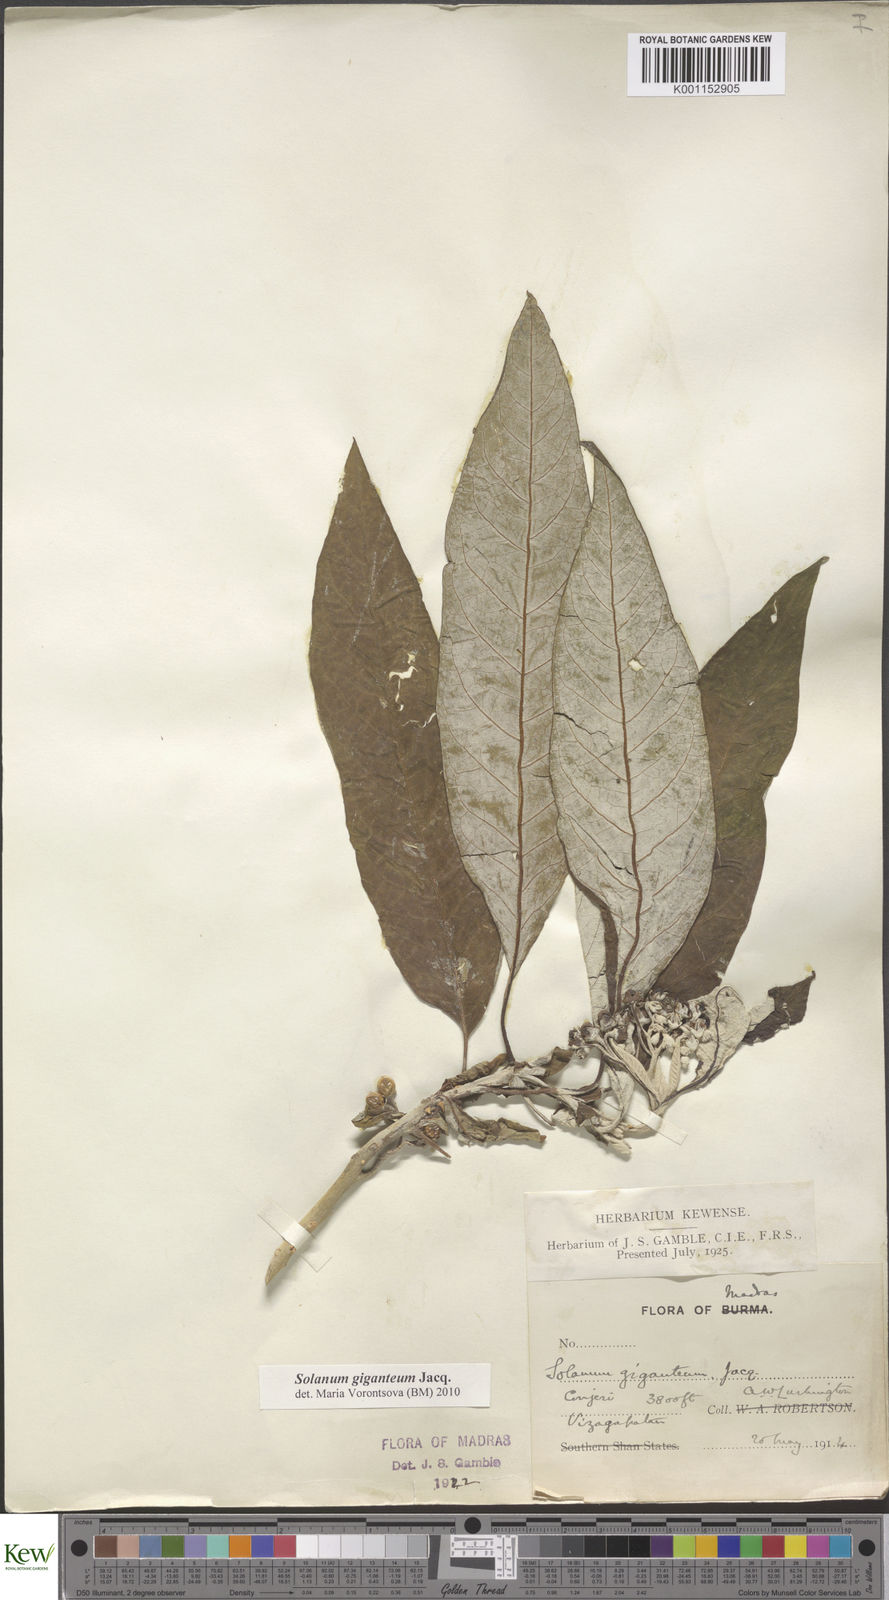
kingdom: Plantae
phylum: Tracheophyta
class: Magnoliopsida
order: Solanales
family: Solanaceae
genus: Solanum
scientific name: Solanum giganteum
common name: Healing-leaf-tree
